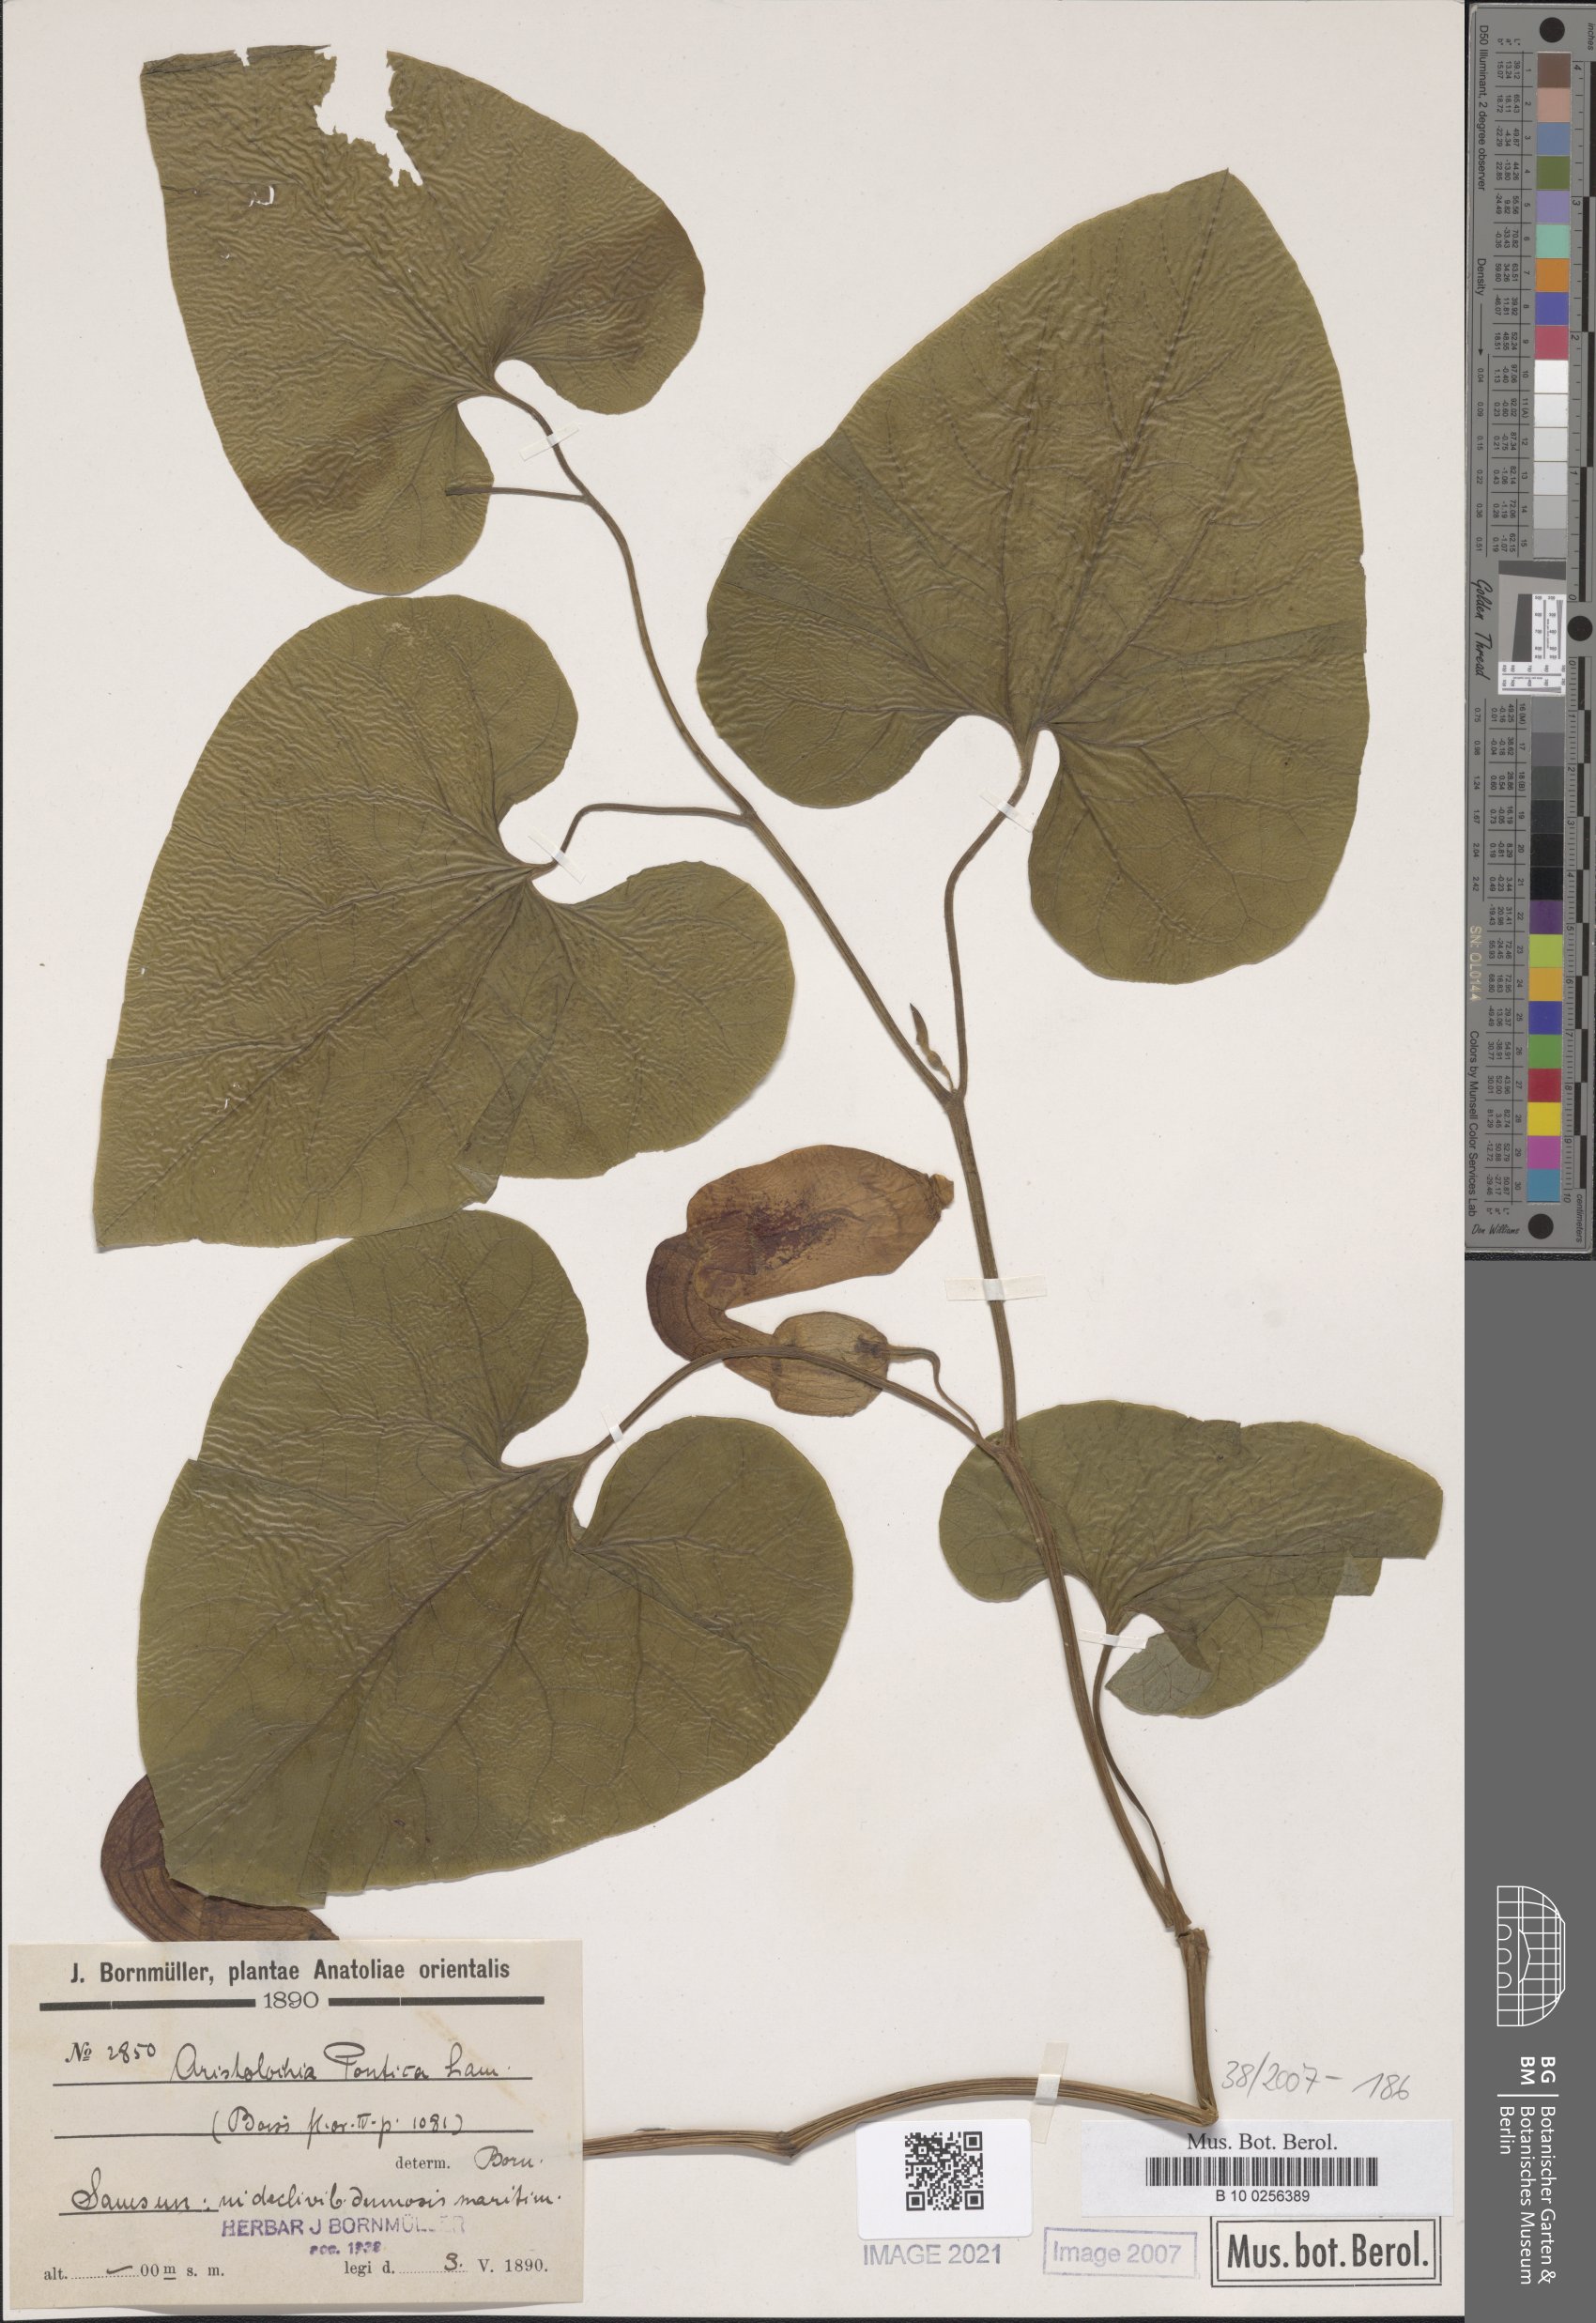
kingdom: Plantae
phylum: Tracheophyta
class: Magnoliopsida
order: Piperales
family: Aristolochiaceae
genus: Aristolochia
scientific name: Aristolochia pontica
